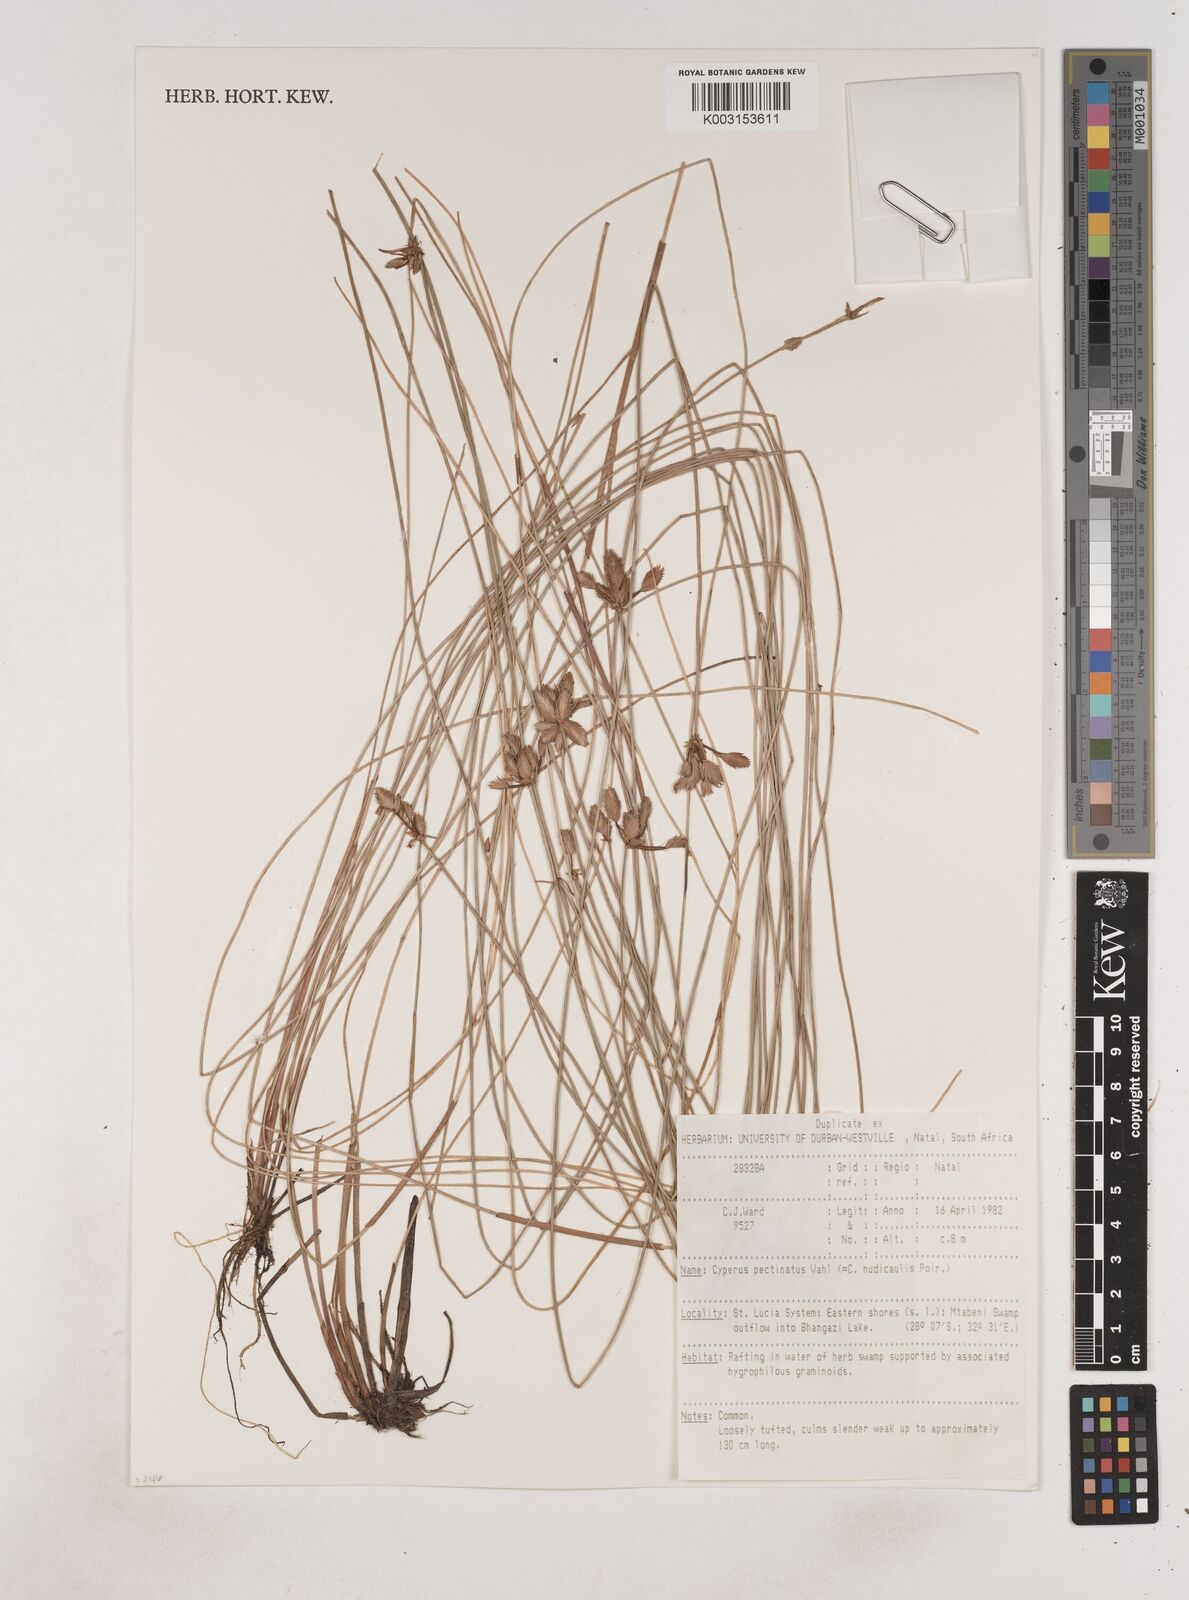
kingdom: Plantae
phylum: Tracheophyta
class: Liliopsida
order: Poales
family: Cyperaceae
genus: Cyperus
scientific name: Cyperus pectinatus
